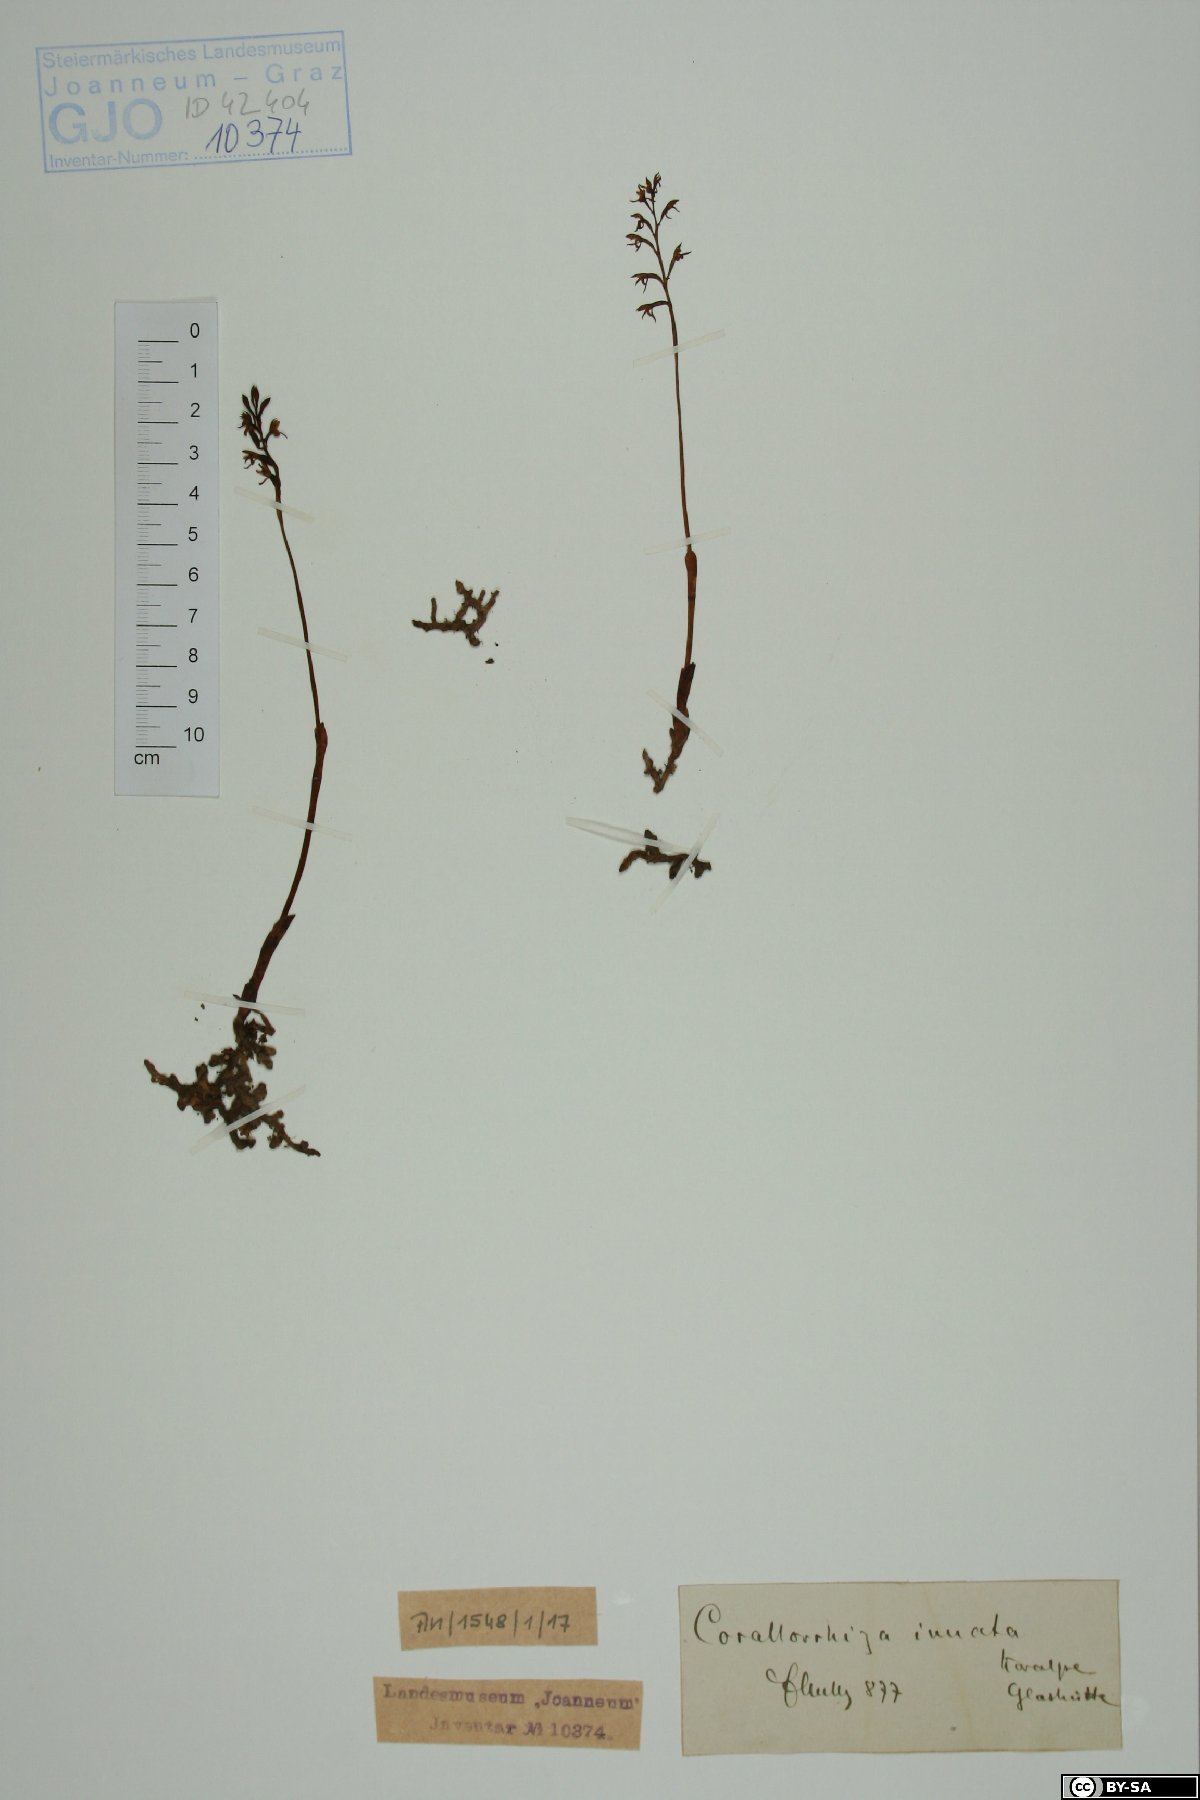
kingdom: Plantae
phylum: Tracheophyta
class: Liliopsida
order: Asparagales
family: Orchidaceae
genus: Corallorhiza
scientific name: Corallorhiza trifida
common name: Yellow coralroot
